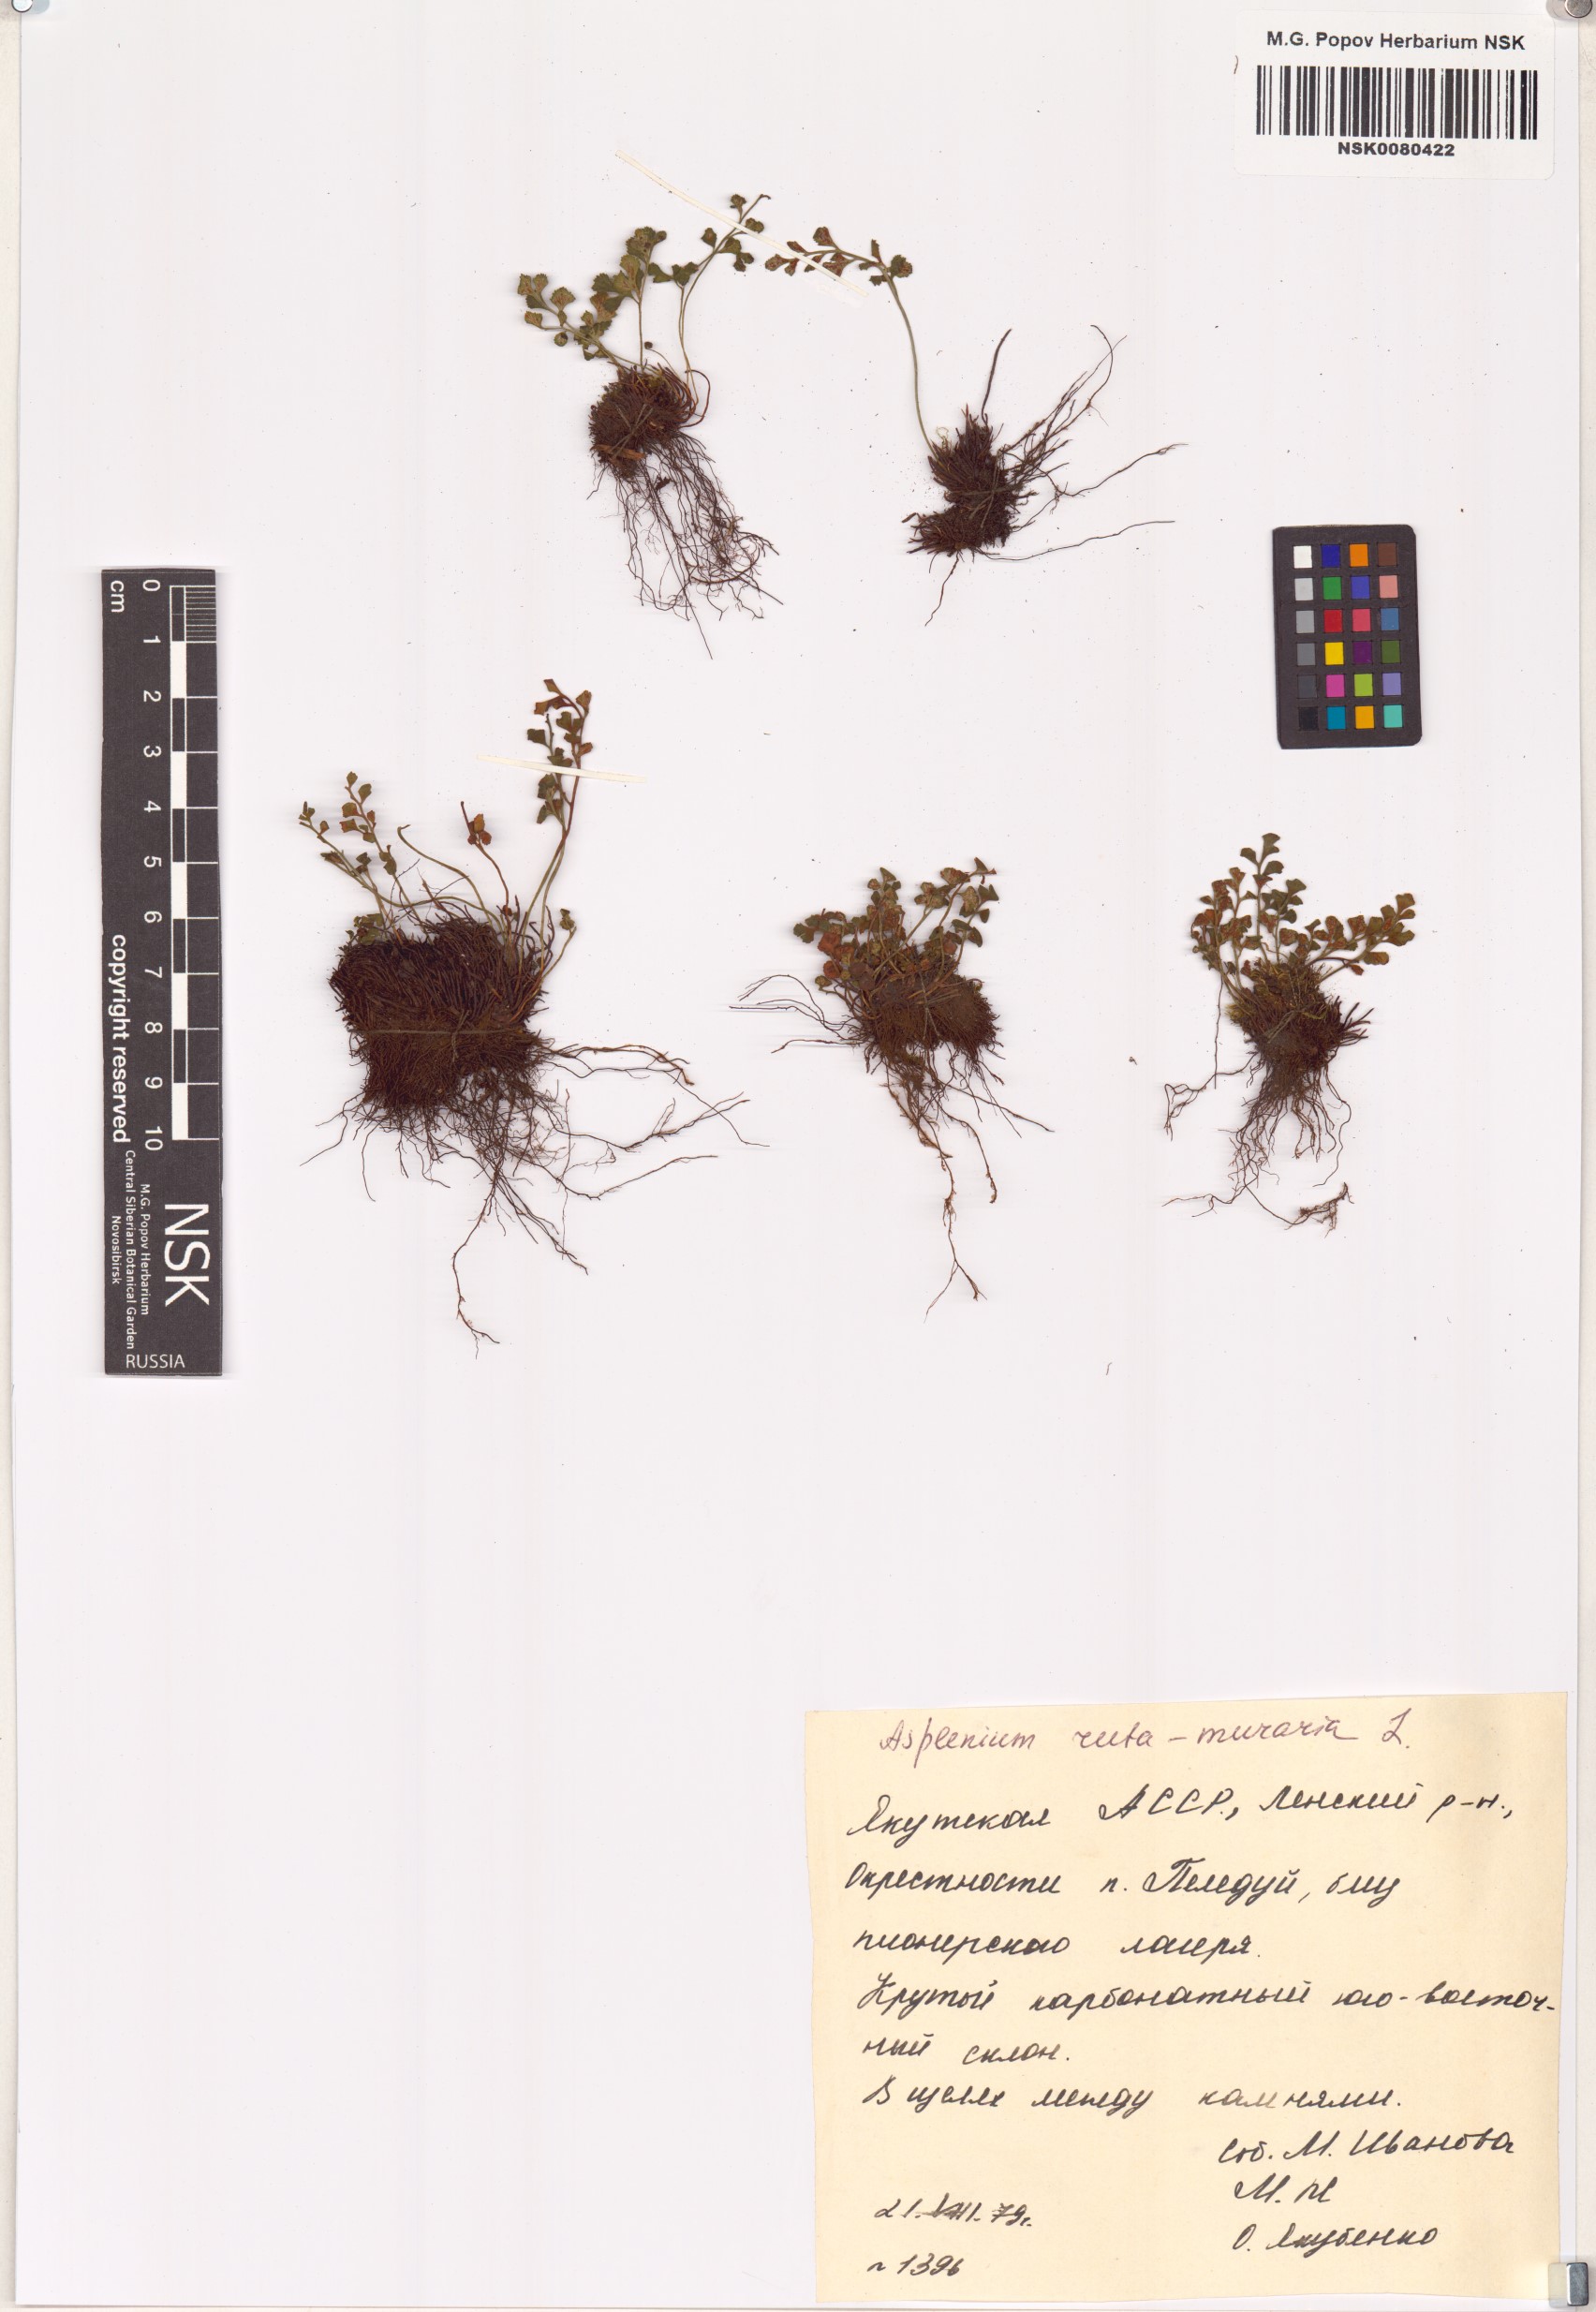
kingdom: Plantae
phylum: Tracheophyta
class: Polypodiopsida
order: Polypodiales
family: Aspleniaceae
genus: Asplenium
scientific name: Asplenium ruta-muraria
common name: Wall-rue
